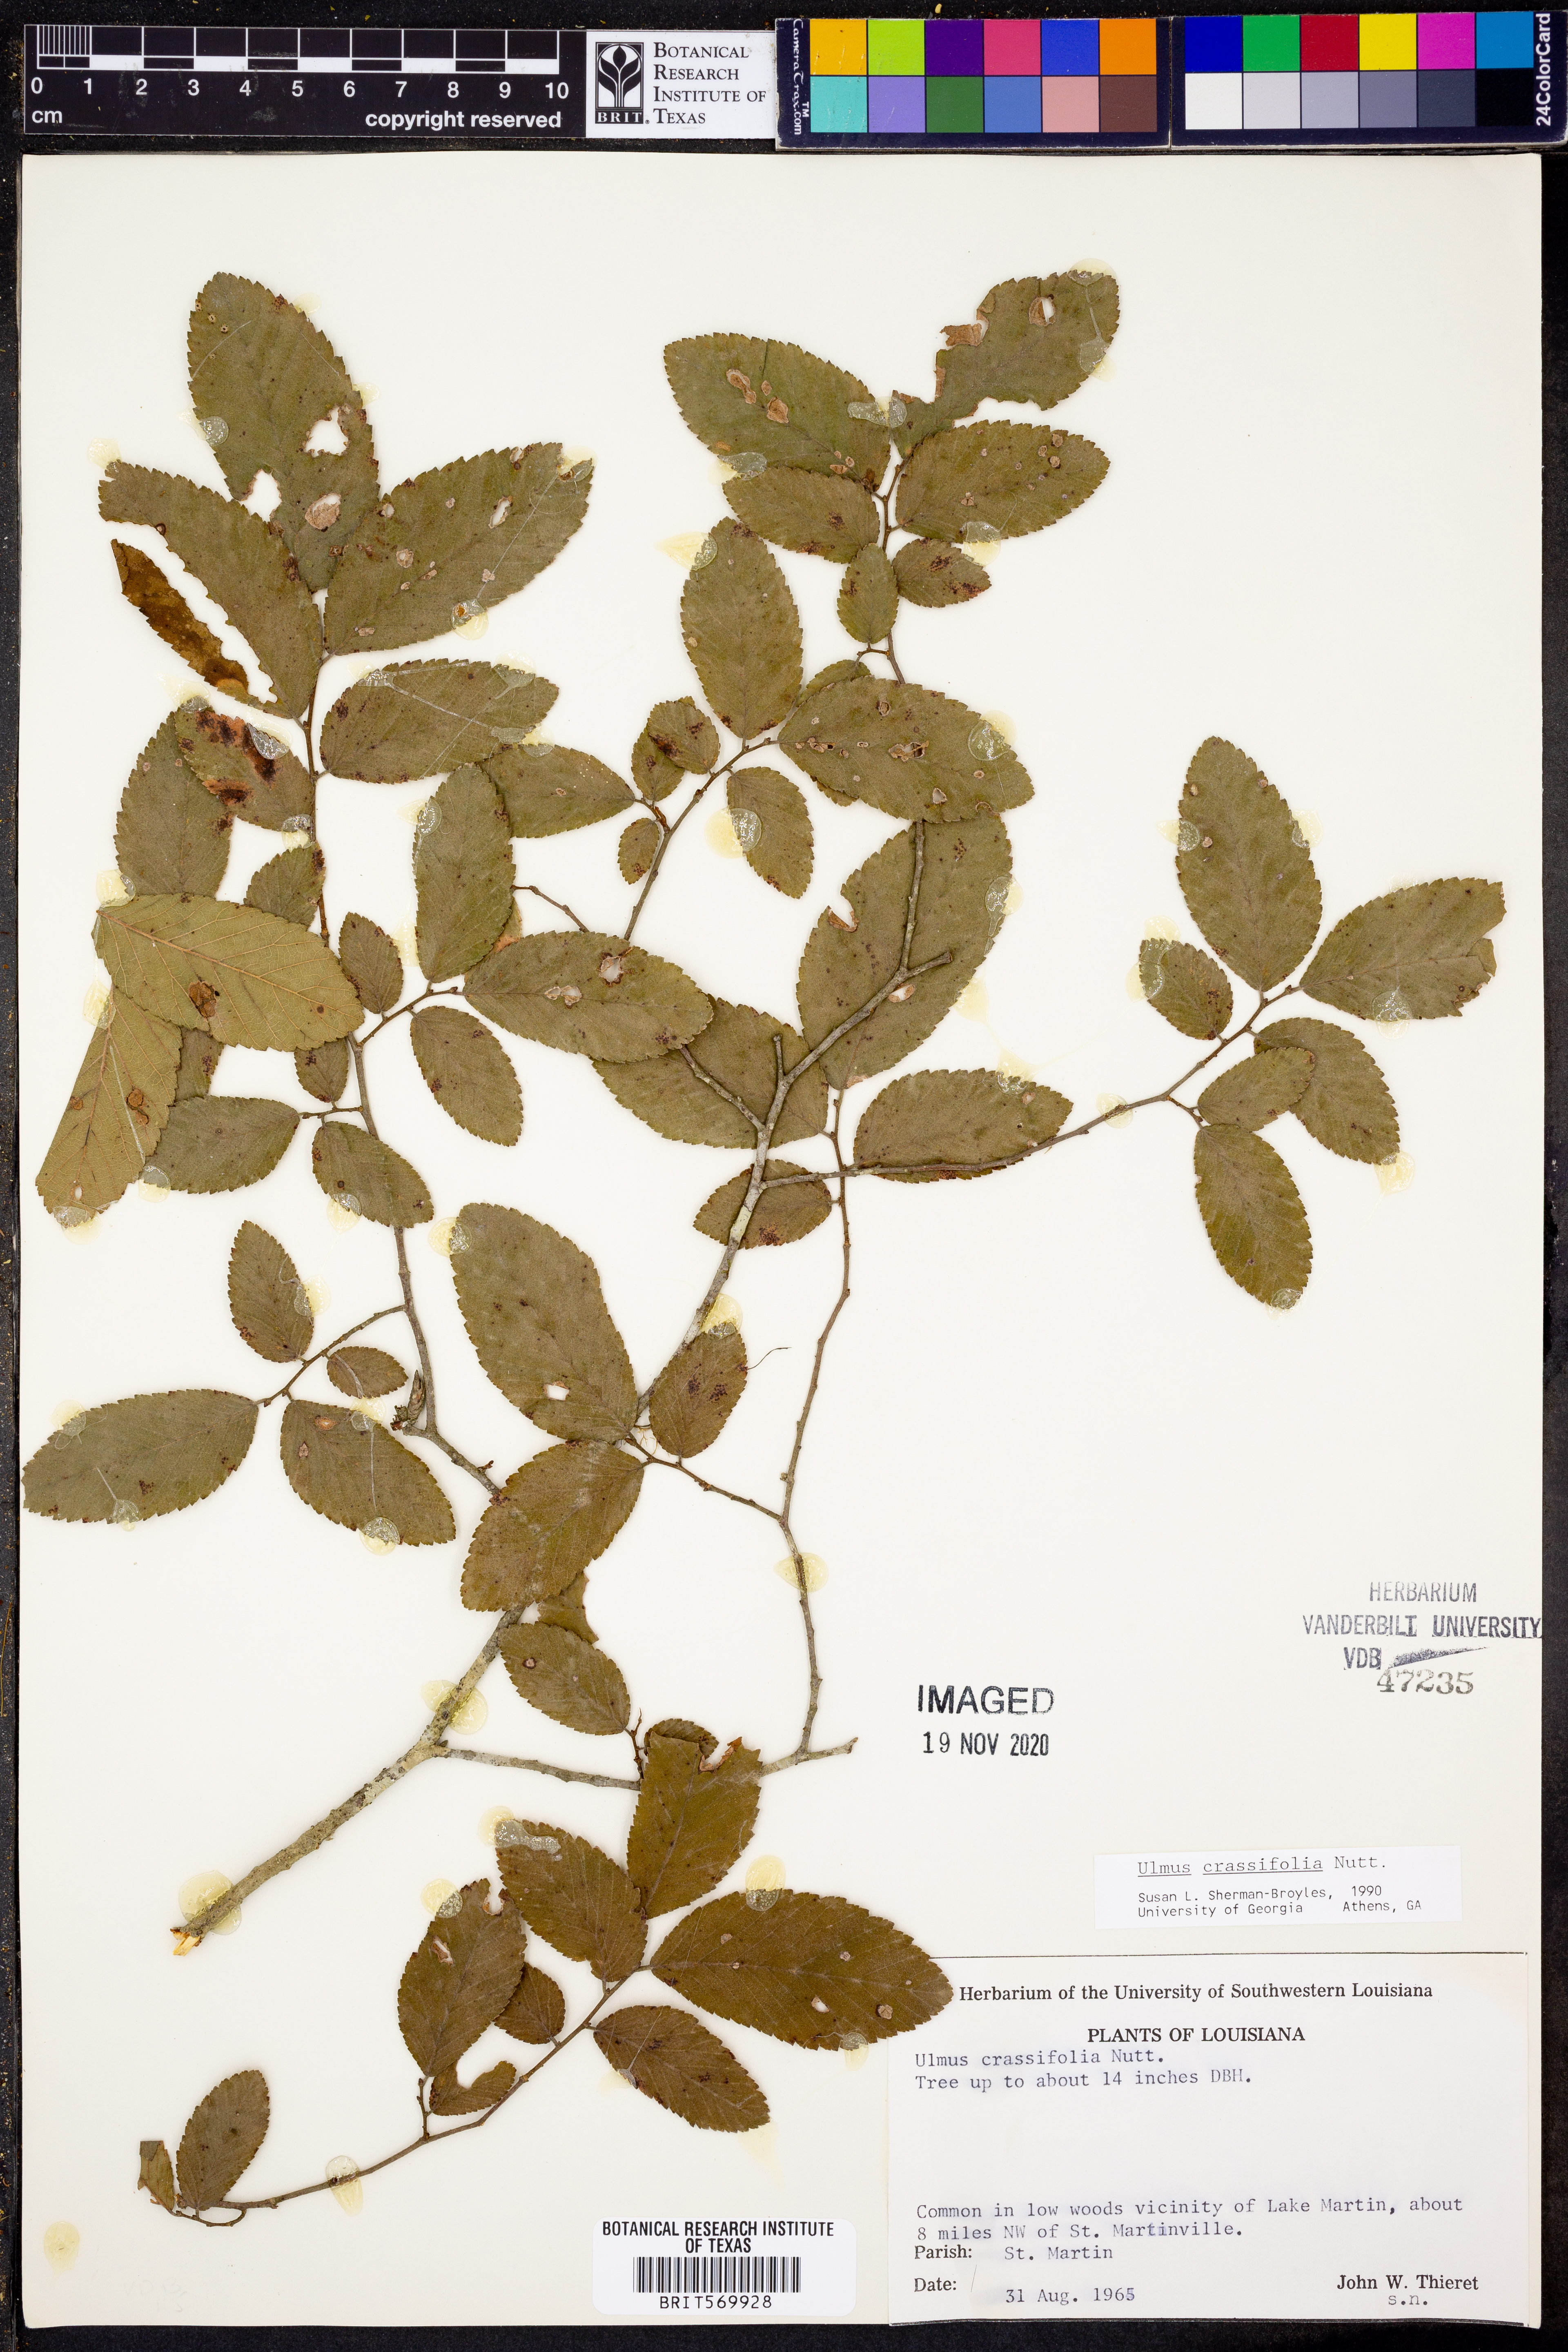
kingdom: Plantae
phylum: Tracheophyta
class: Magnoliopsida
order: Rosales
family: Ulmaceae
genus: Ulmus
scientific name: Ulmus crassifolia
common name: Basket elm
